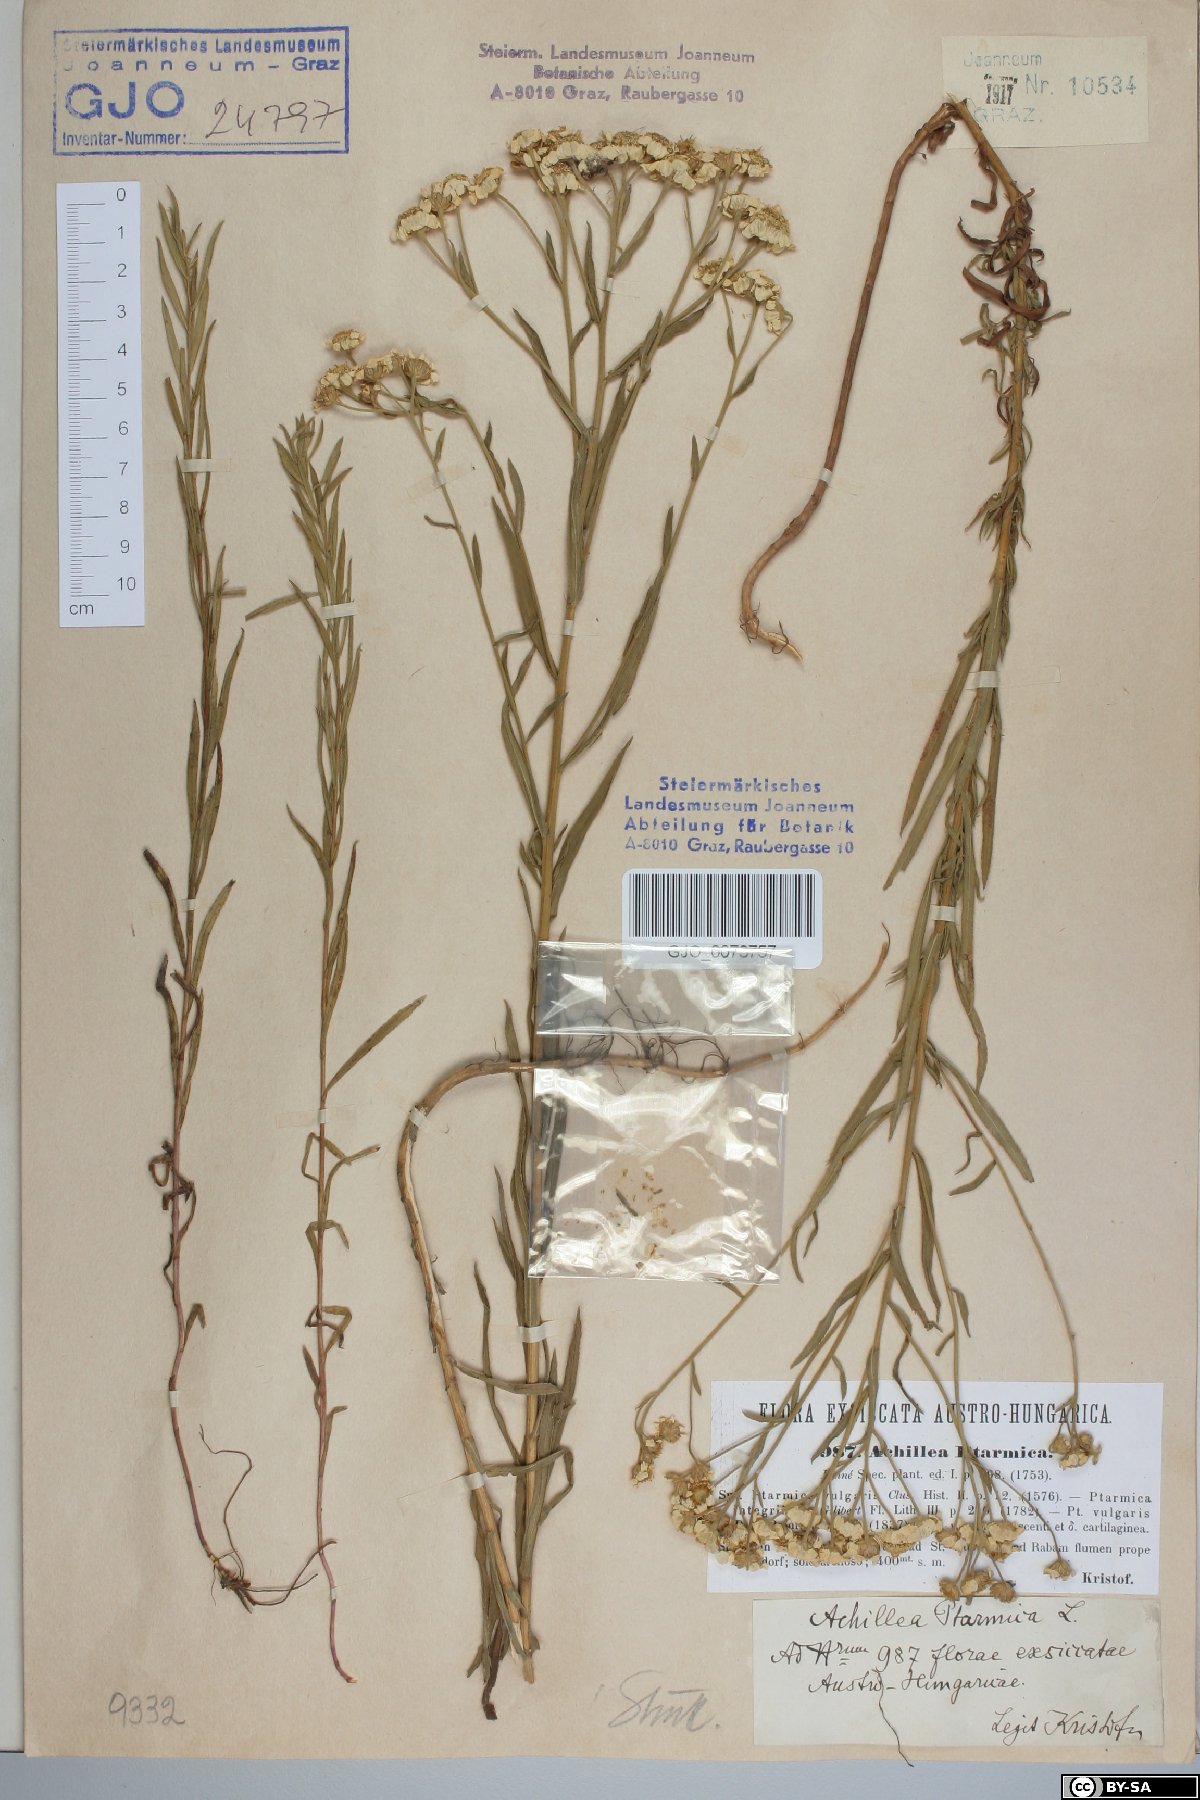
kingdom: Plantae
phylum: Tracheophyta
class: Magnoliopsida
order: Asterales
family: Asteraceae
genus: Achillea
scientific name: Achillea ptarmica
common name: Sneezeweed
